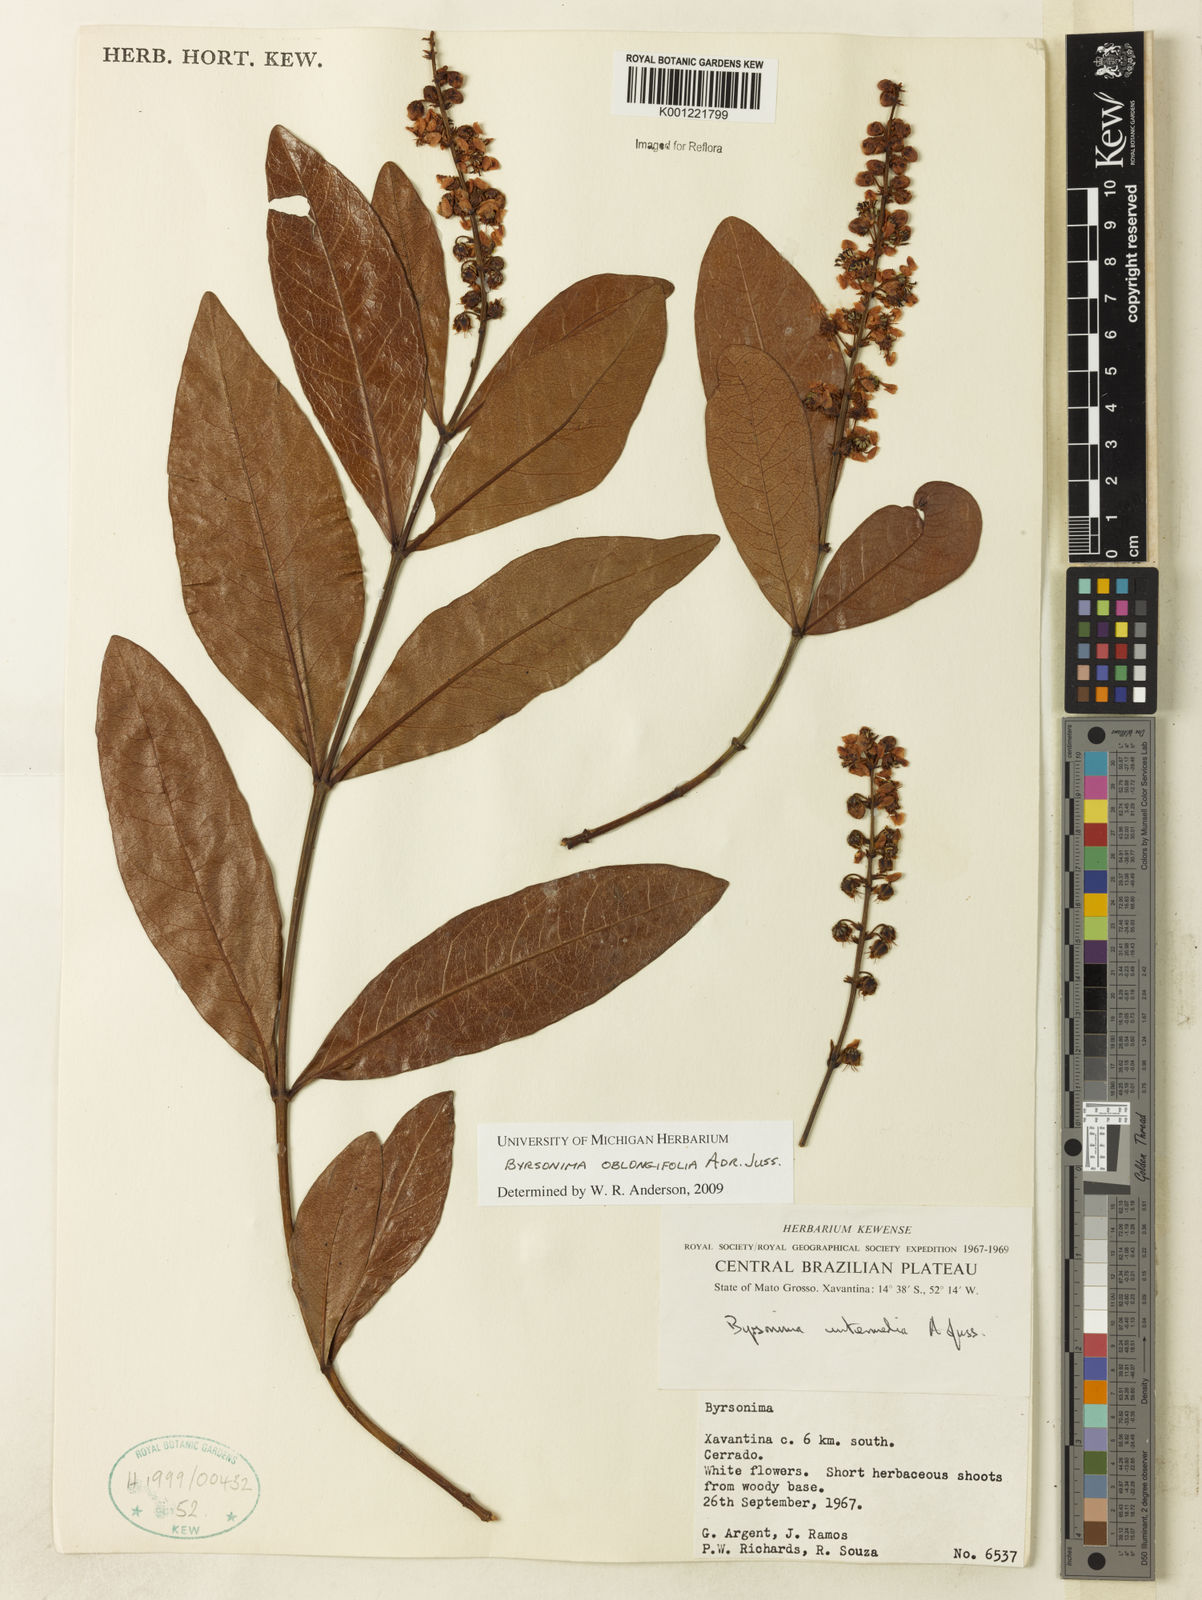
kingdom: Plantae
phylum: Tracheophyta
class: Magnoliopsida
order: Malpighiales
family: Malpighiaceae
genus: Byrsonima
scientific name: Byrsonima oblongifolia
